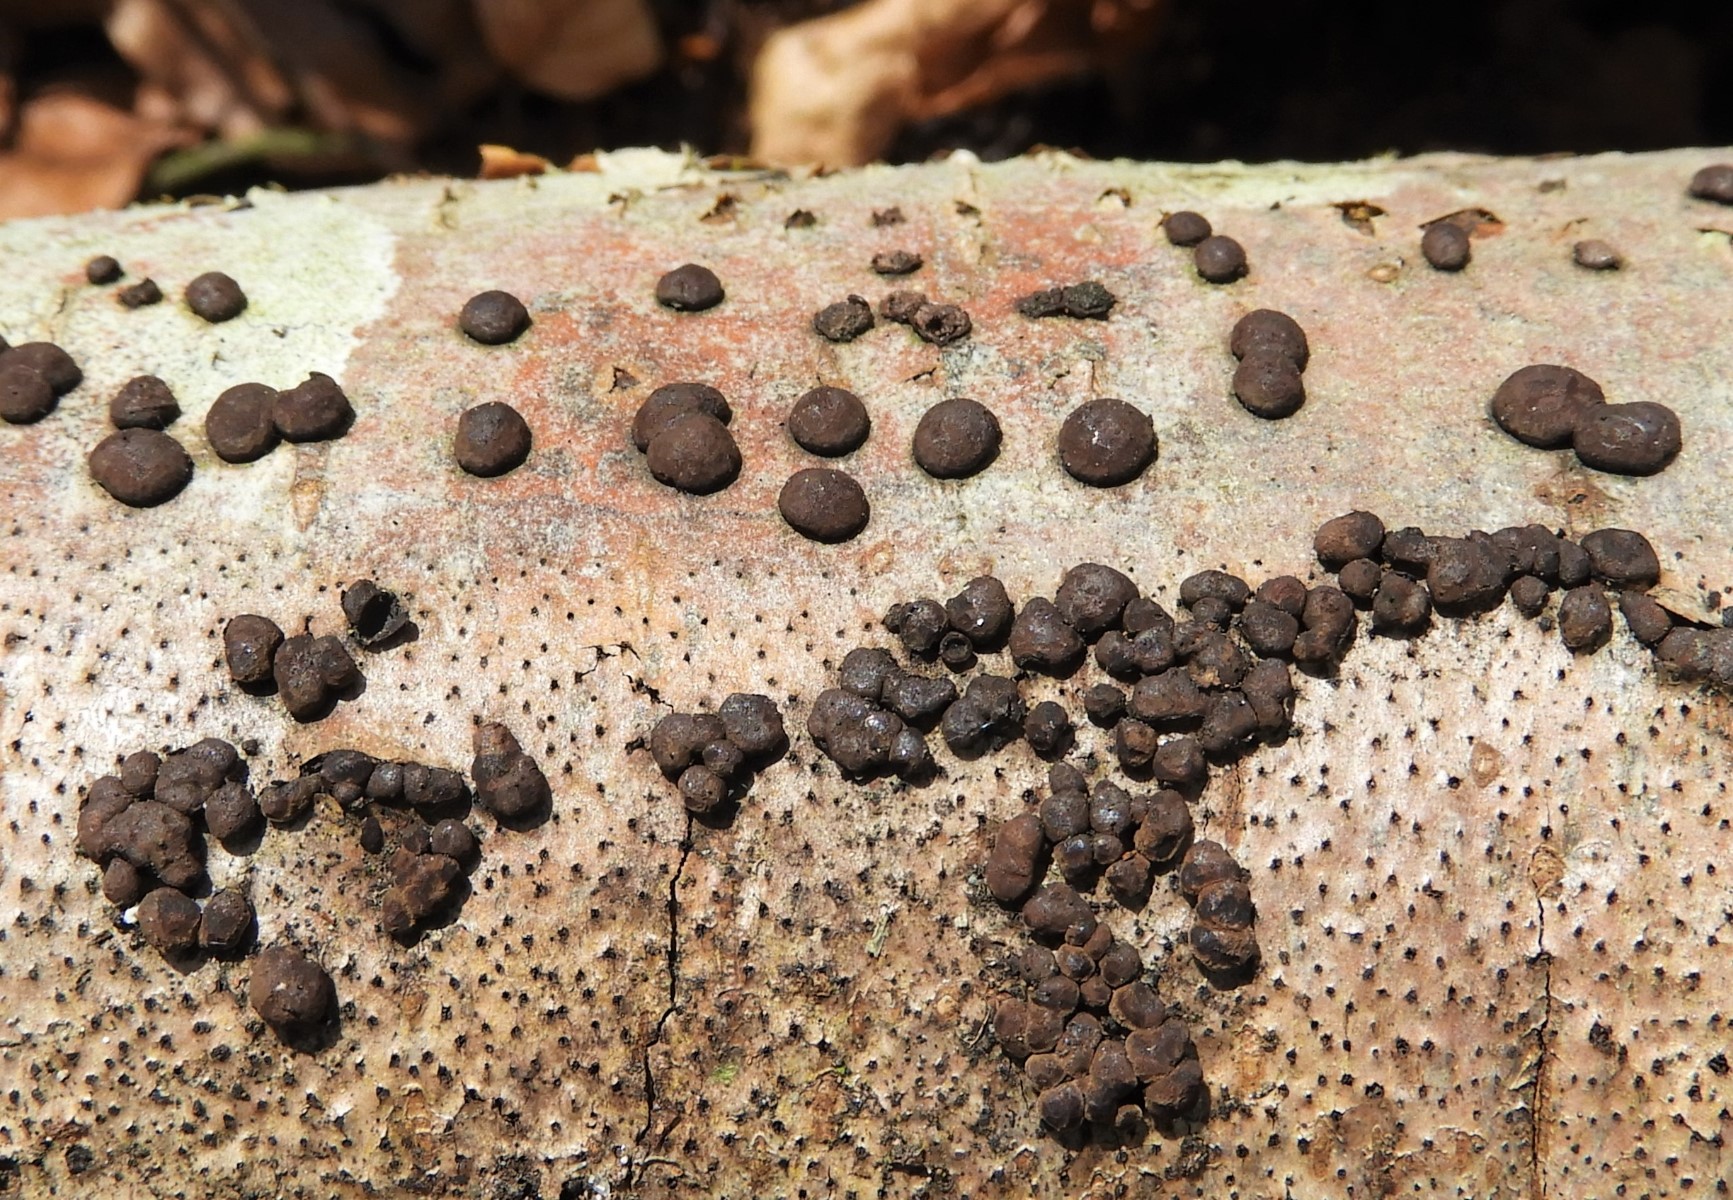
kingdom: Fungi
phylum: Ascomycota
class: Sordariomycetes
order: Xylariales
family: Hypoxylaceae
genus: Hypoxylon
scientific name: Hypoxylon fuscum
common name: kegleformet kulbær
